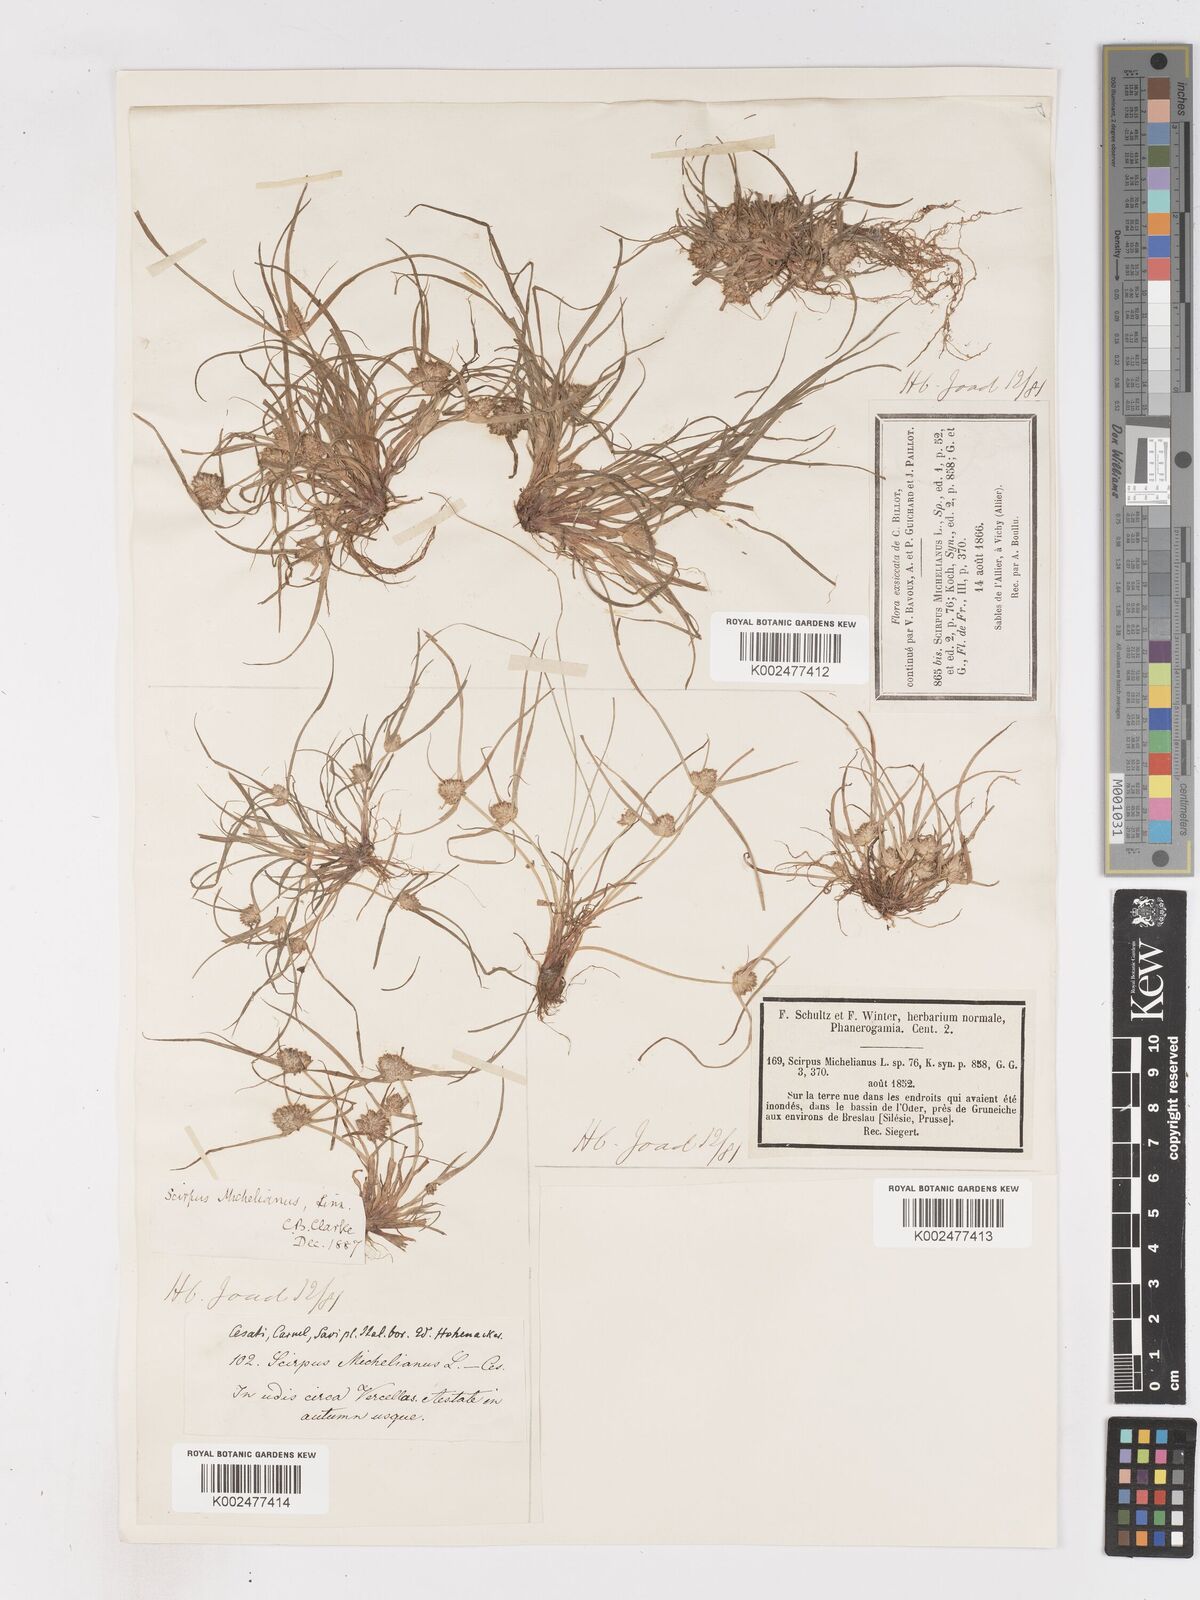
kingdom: Plantae
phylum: Tracheophyta
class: Liliopsida
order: Poales
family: Cyperaceae
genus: Cyperus
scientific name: Cyperus michelianus
